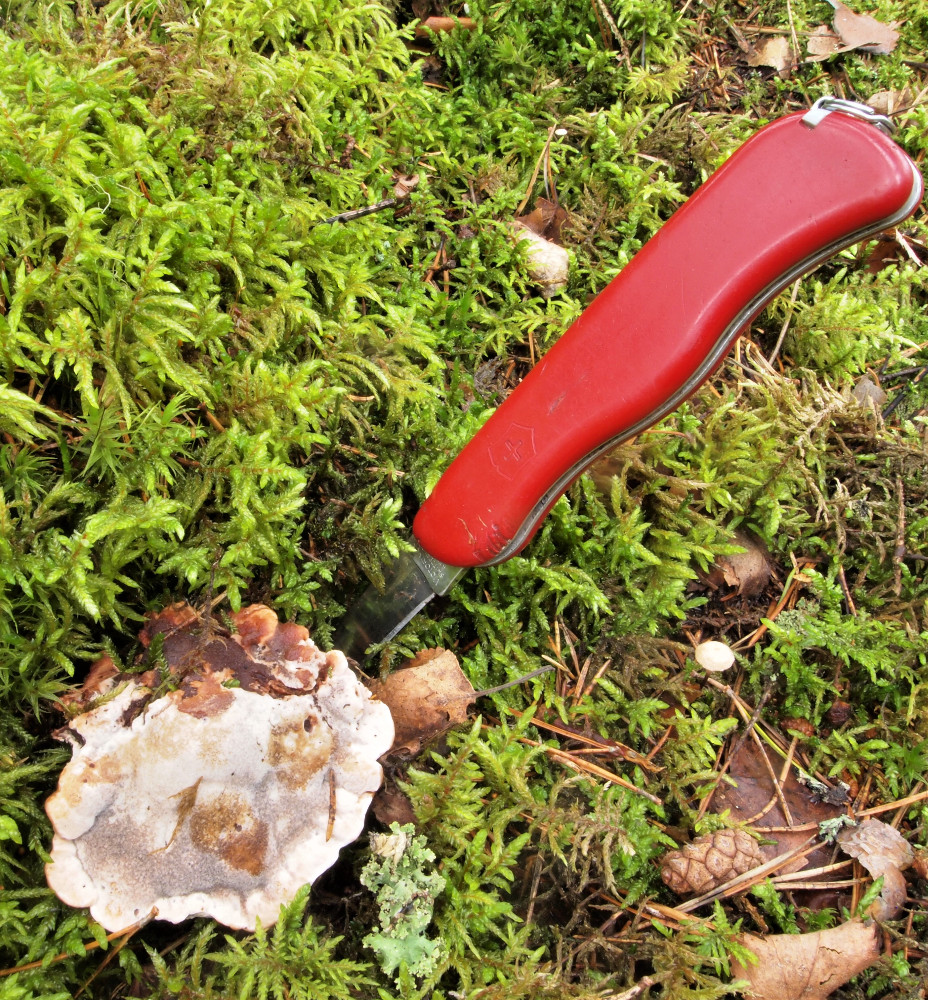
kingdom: Fungi
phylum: Basidiomycota
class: Agaricomycetes
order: Thelephorales
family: Bankeraceae
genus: Hydnellum
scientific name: Hydnellum
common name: korkpigsvamp
